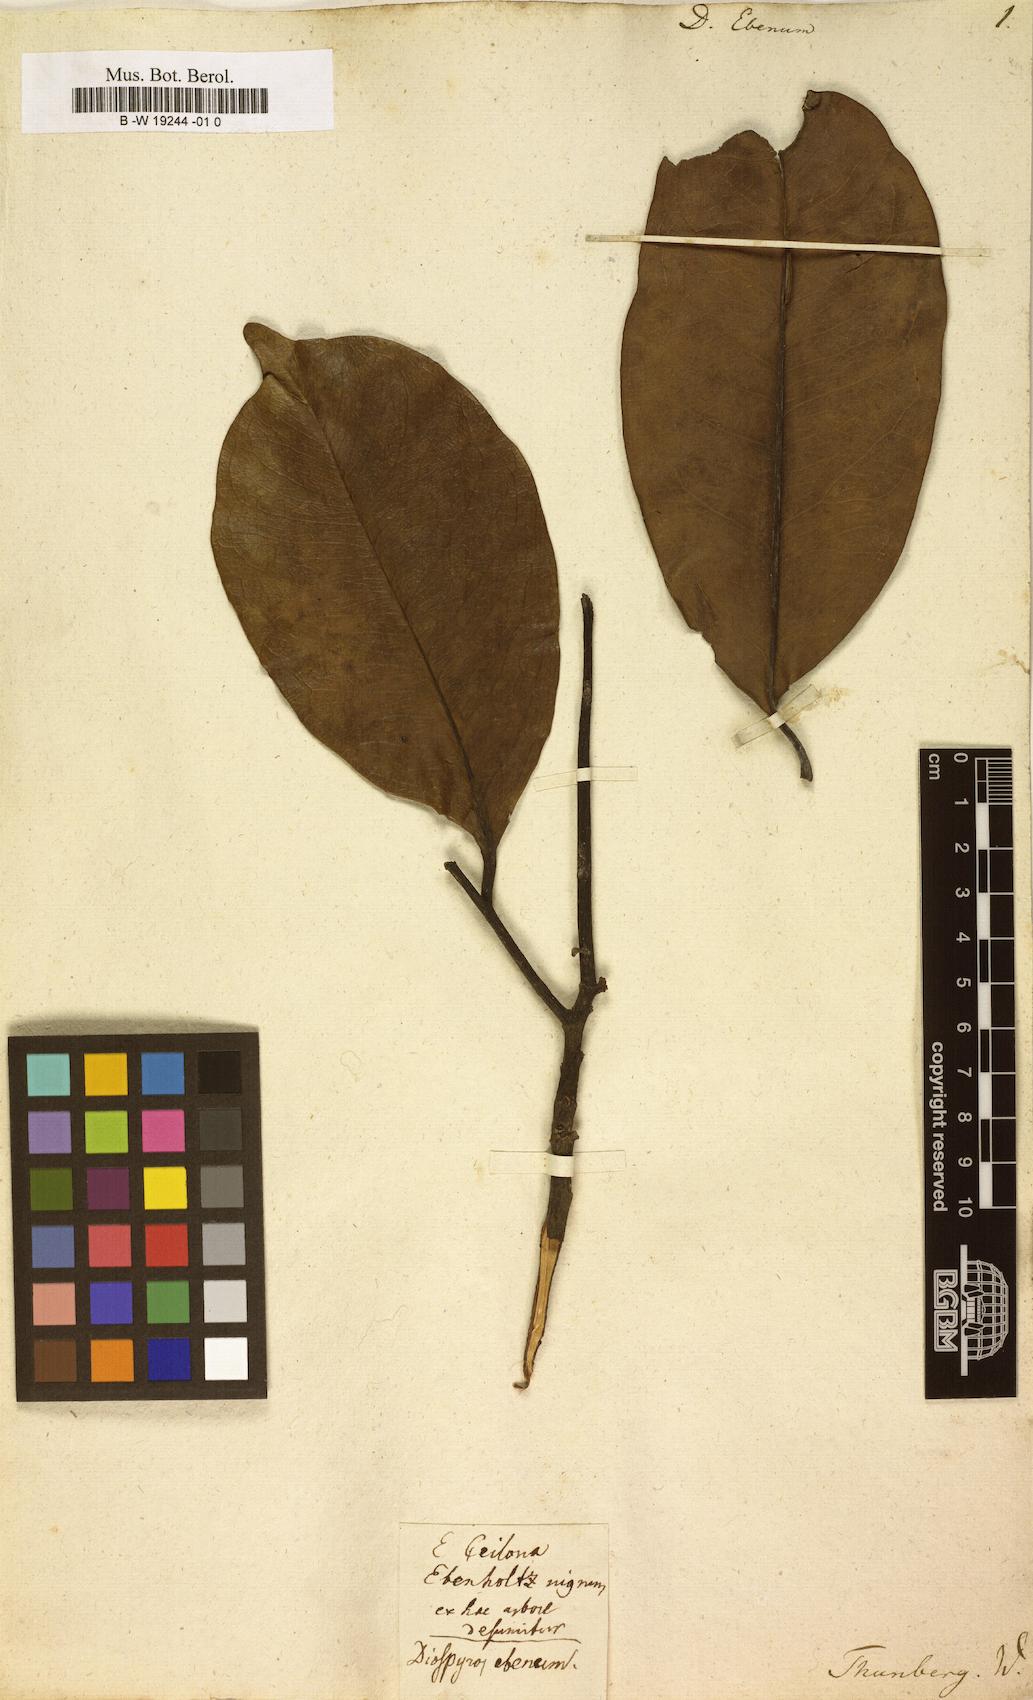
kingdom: Plantae
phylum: Tracheophyta
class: Magnoliopsida
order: Ericales
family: Ebenaceae
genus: Diospyros
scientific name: Diospyros ebenum
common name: Ebony
